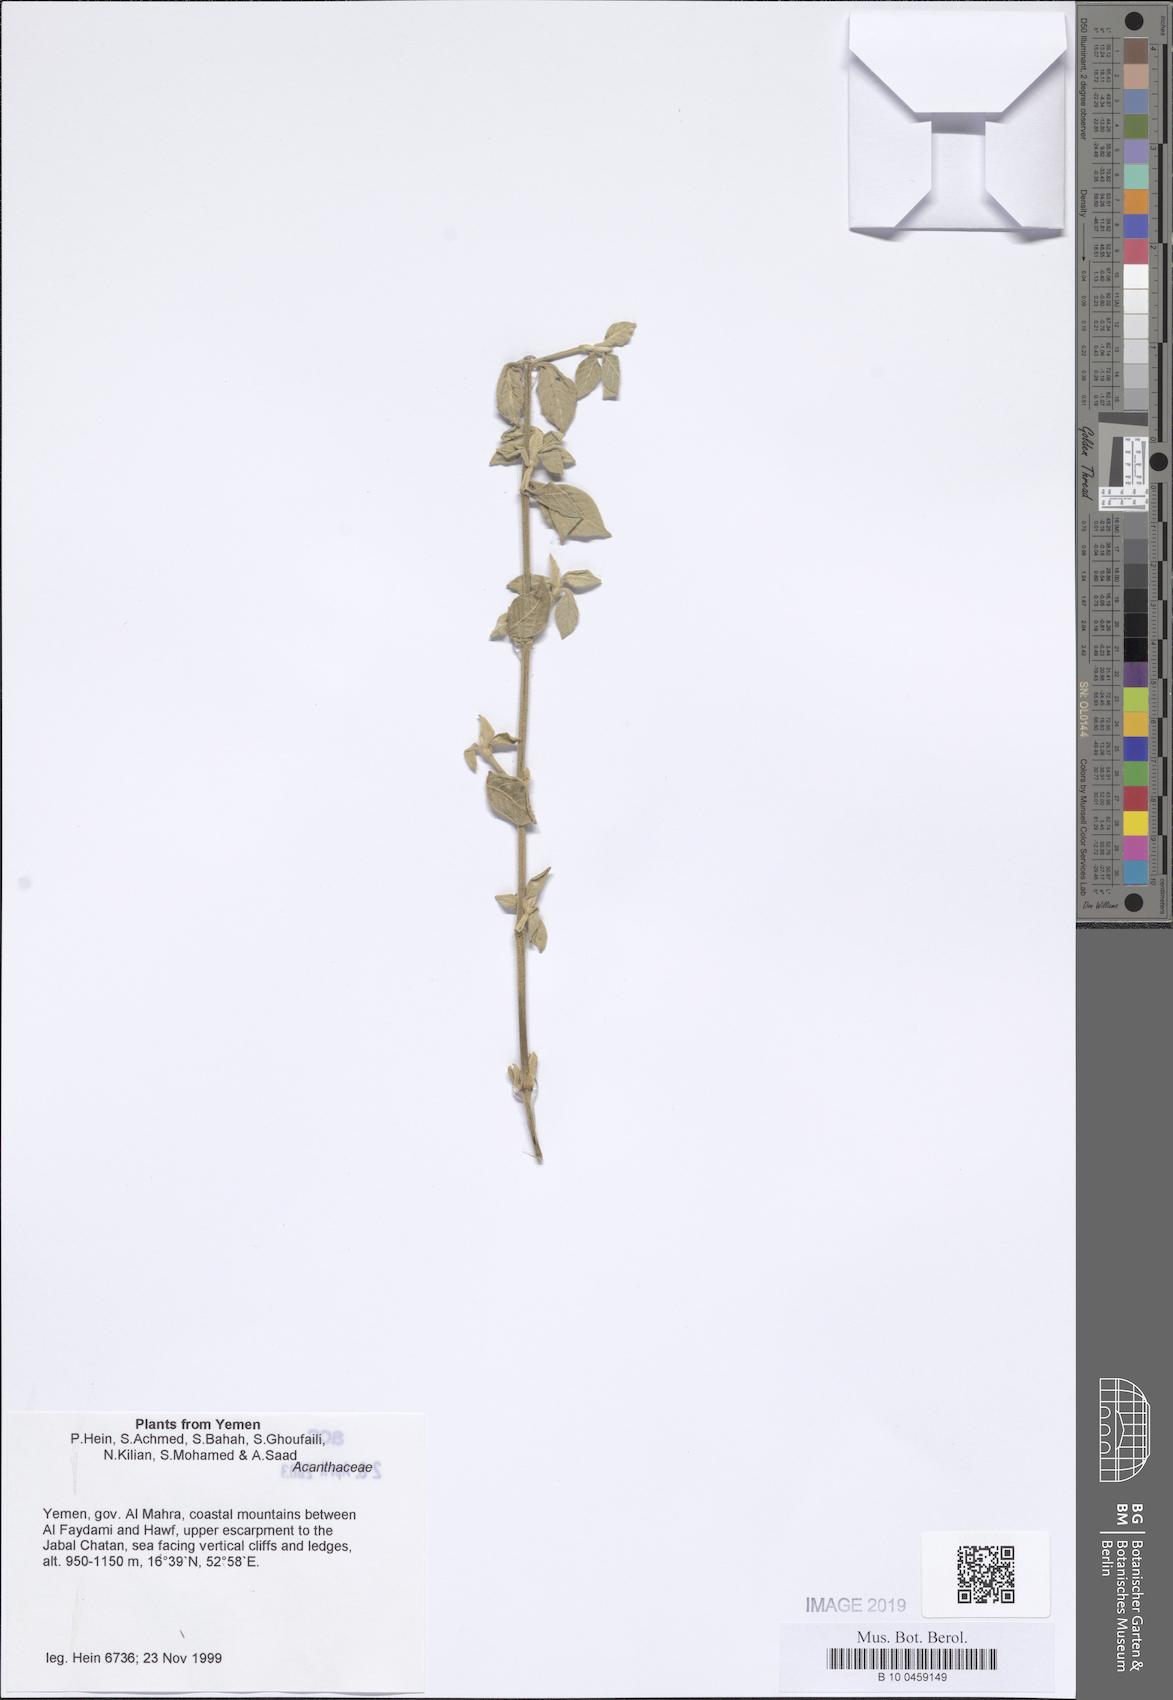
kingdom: Plantae
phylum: Tracheophyta
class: Magnoliopsida
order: Lamiales
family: Acanthaceae
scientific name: Acanthaceae
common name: Acanthaceae
